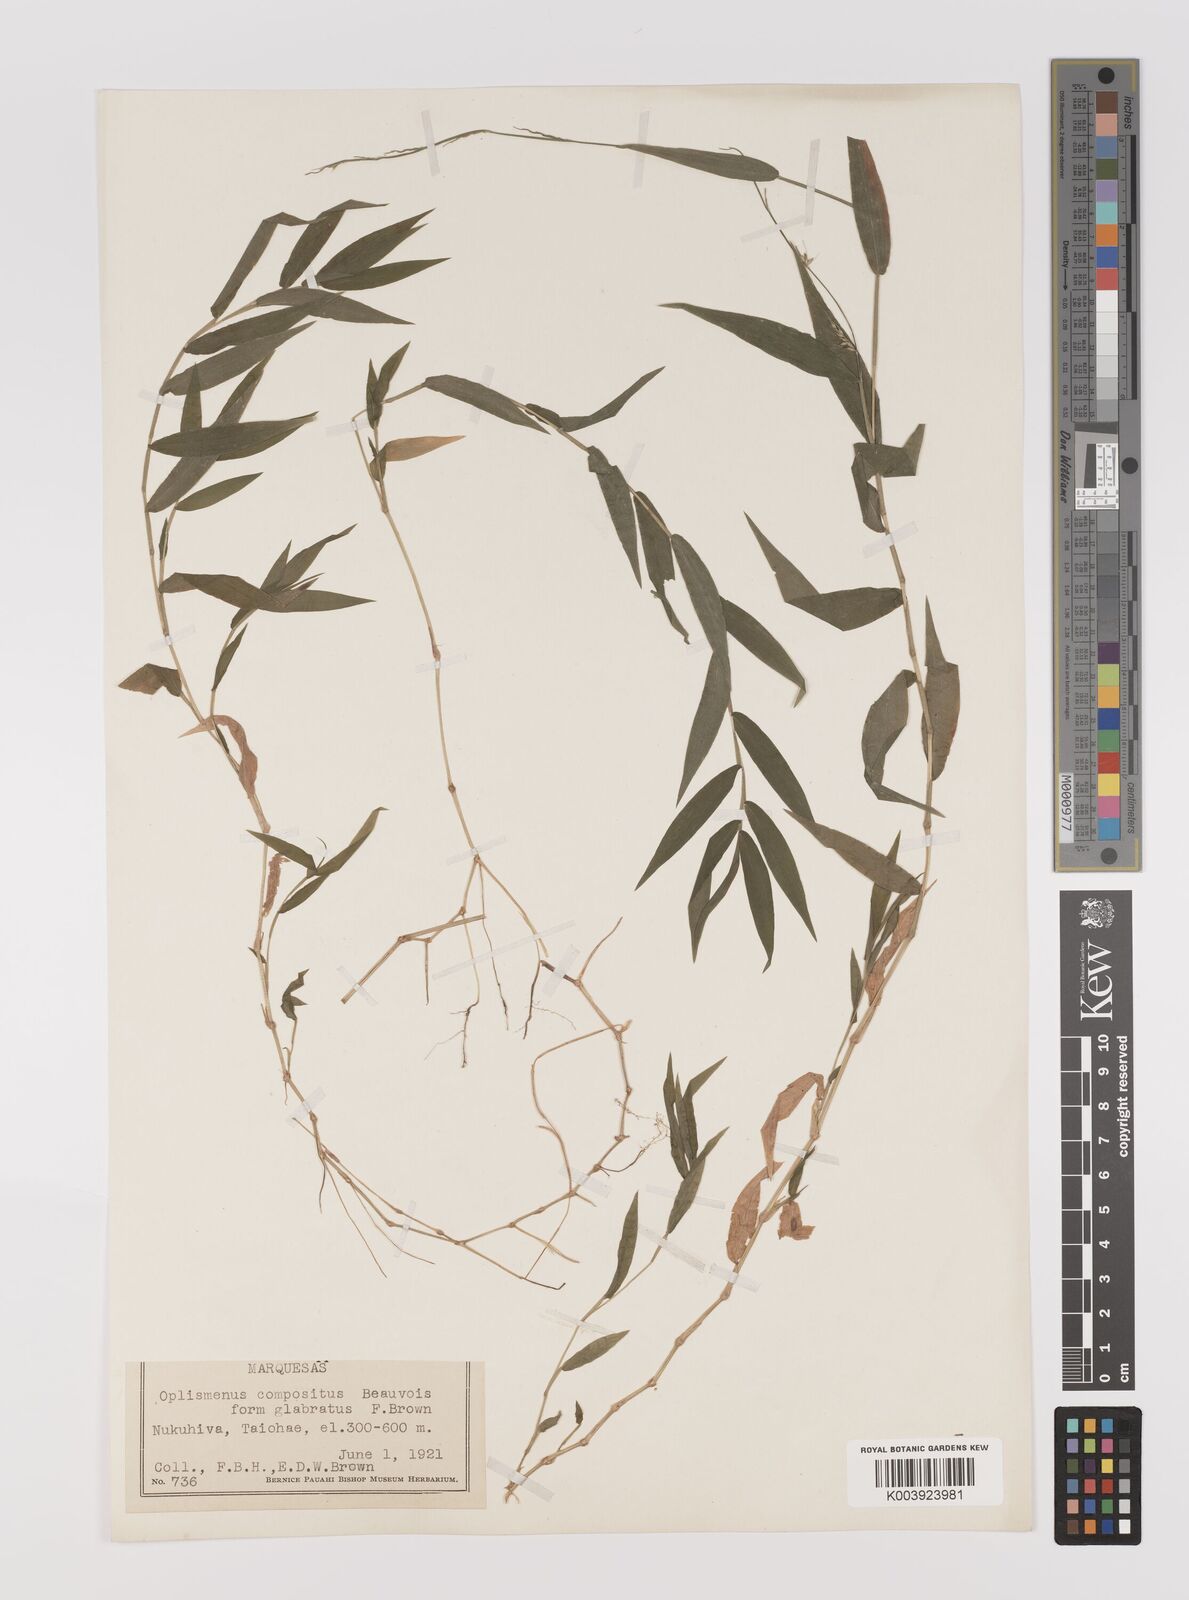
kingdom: Plantae
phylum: Tracheophyta
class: Liliopsida
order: Poales
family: Poaceae
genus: Oplismenus
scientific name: Oplismenus compositus
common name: Running mountain grass
